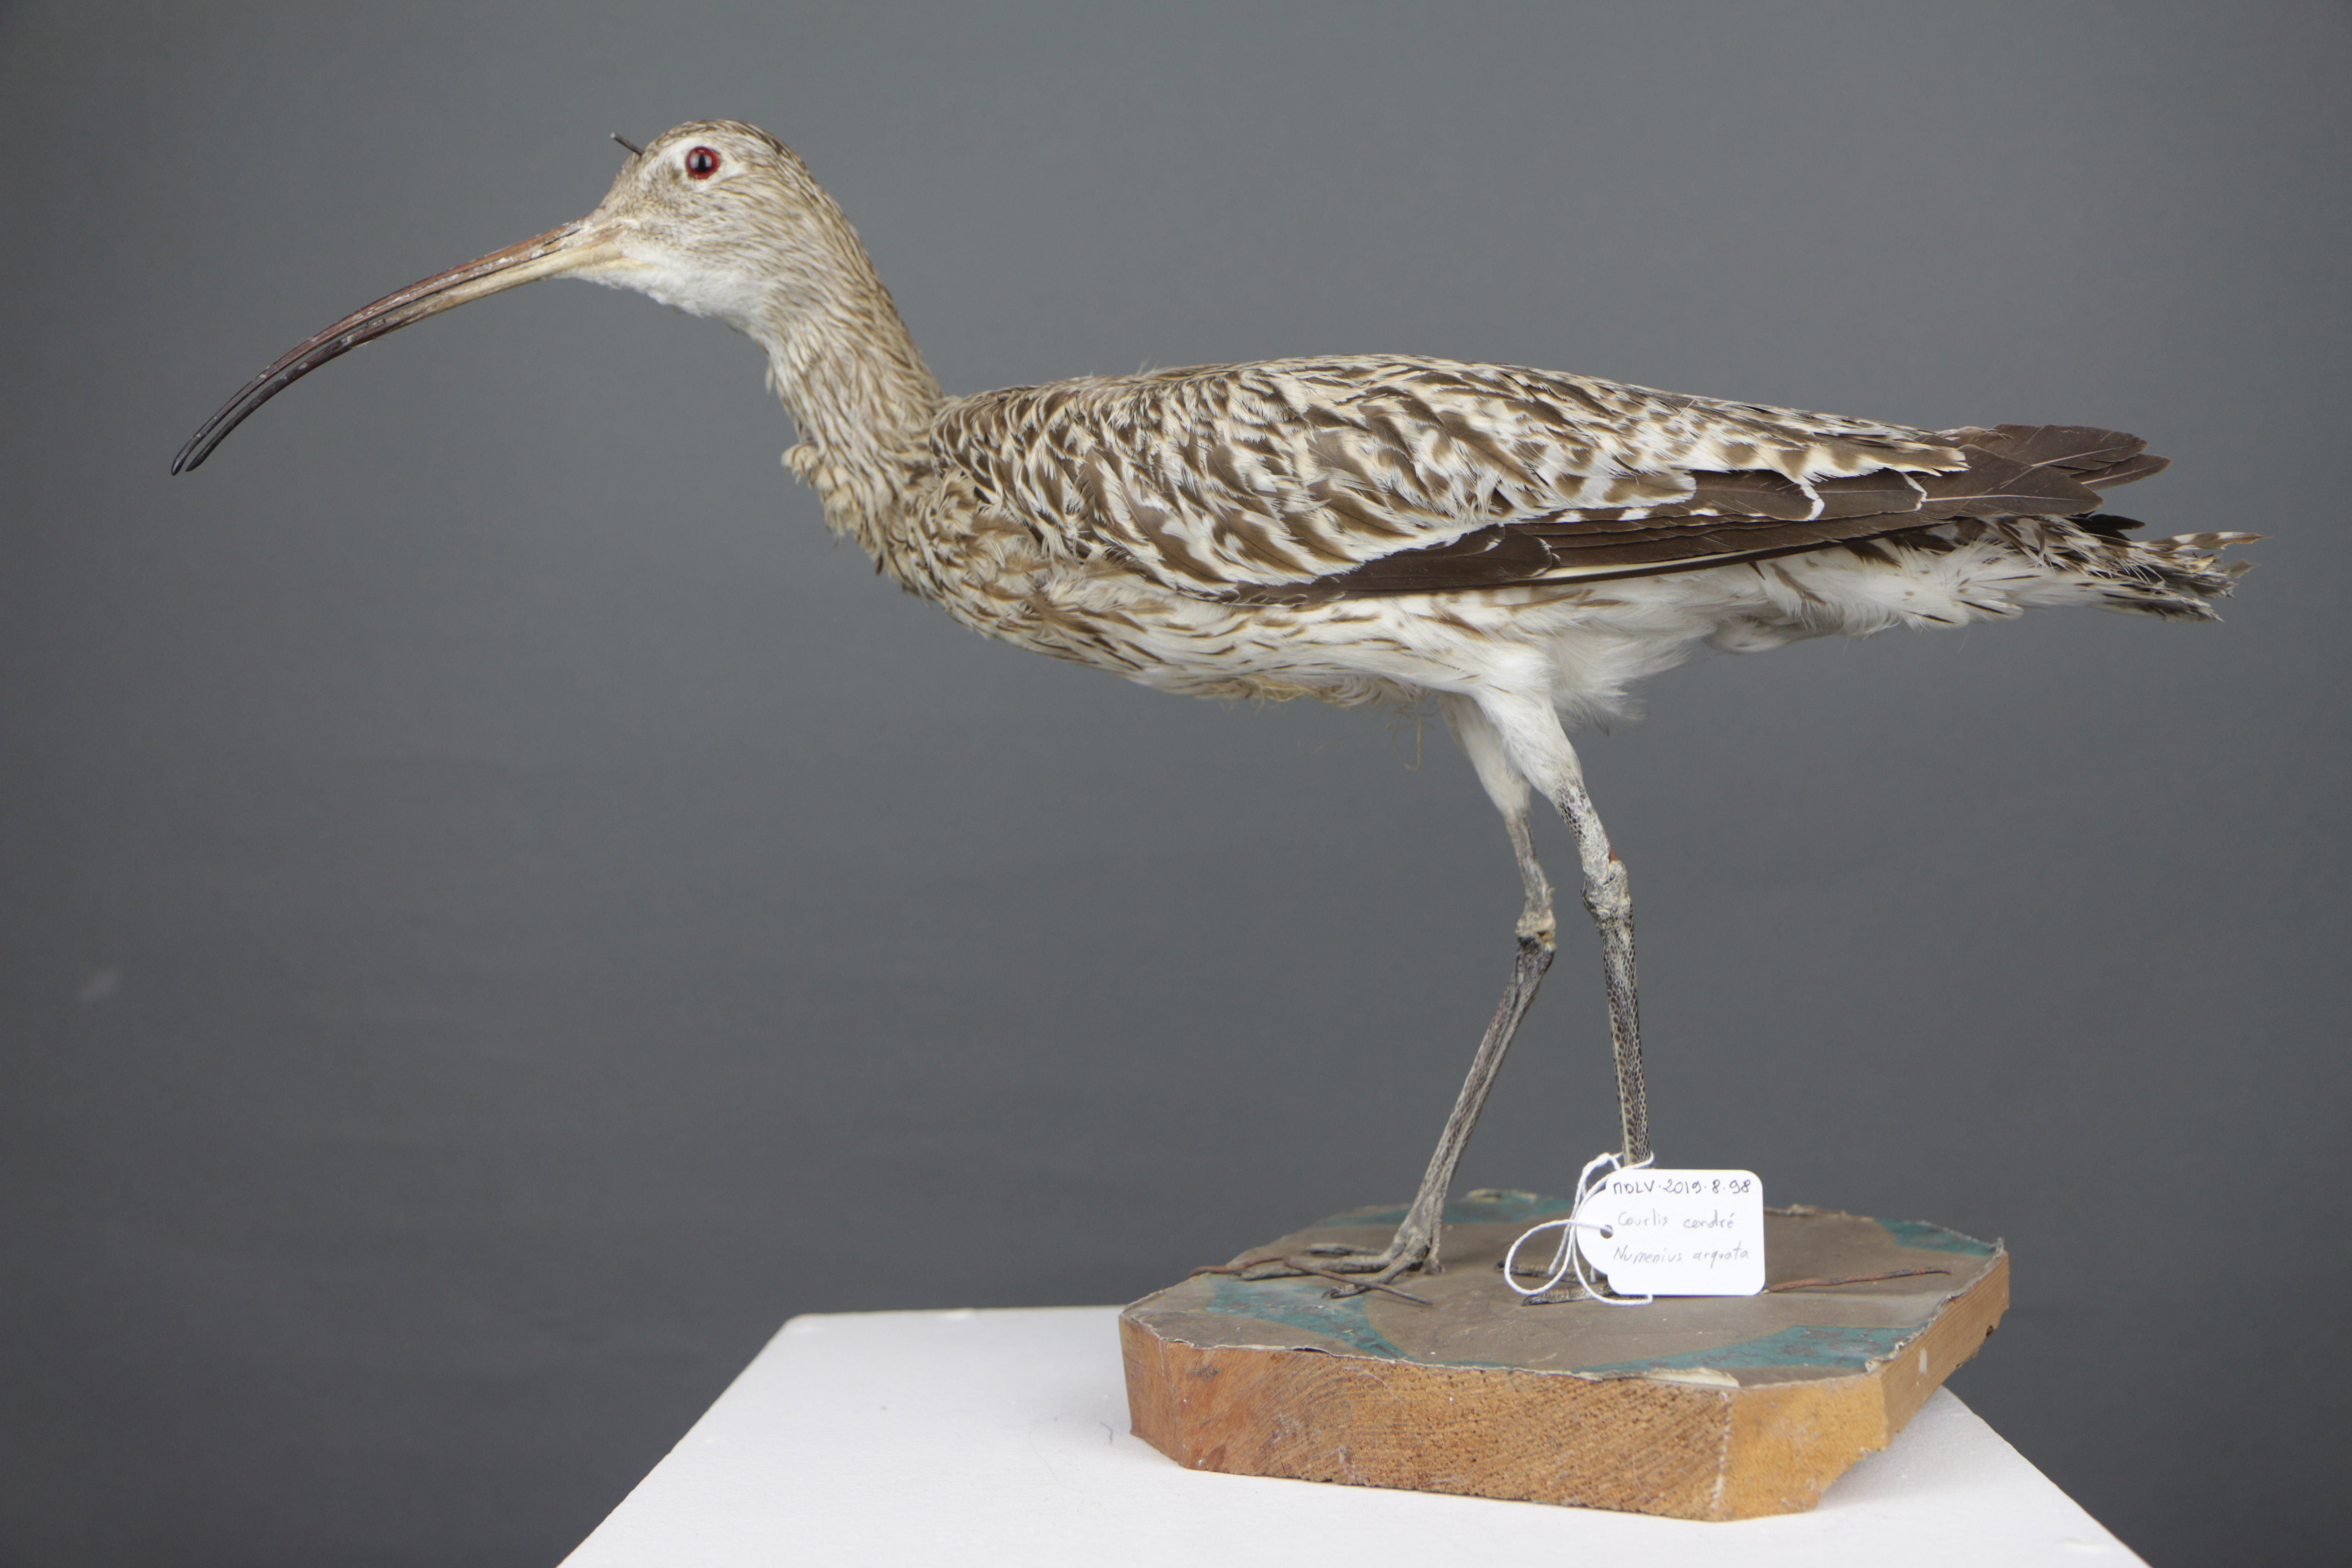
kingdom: Animalia
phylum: Chordata
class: Aves
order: Charadriiformes
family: Scolopacidae
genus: Numenius
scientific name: Numenius arquata
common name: Eurasian curlew
